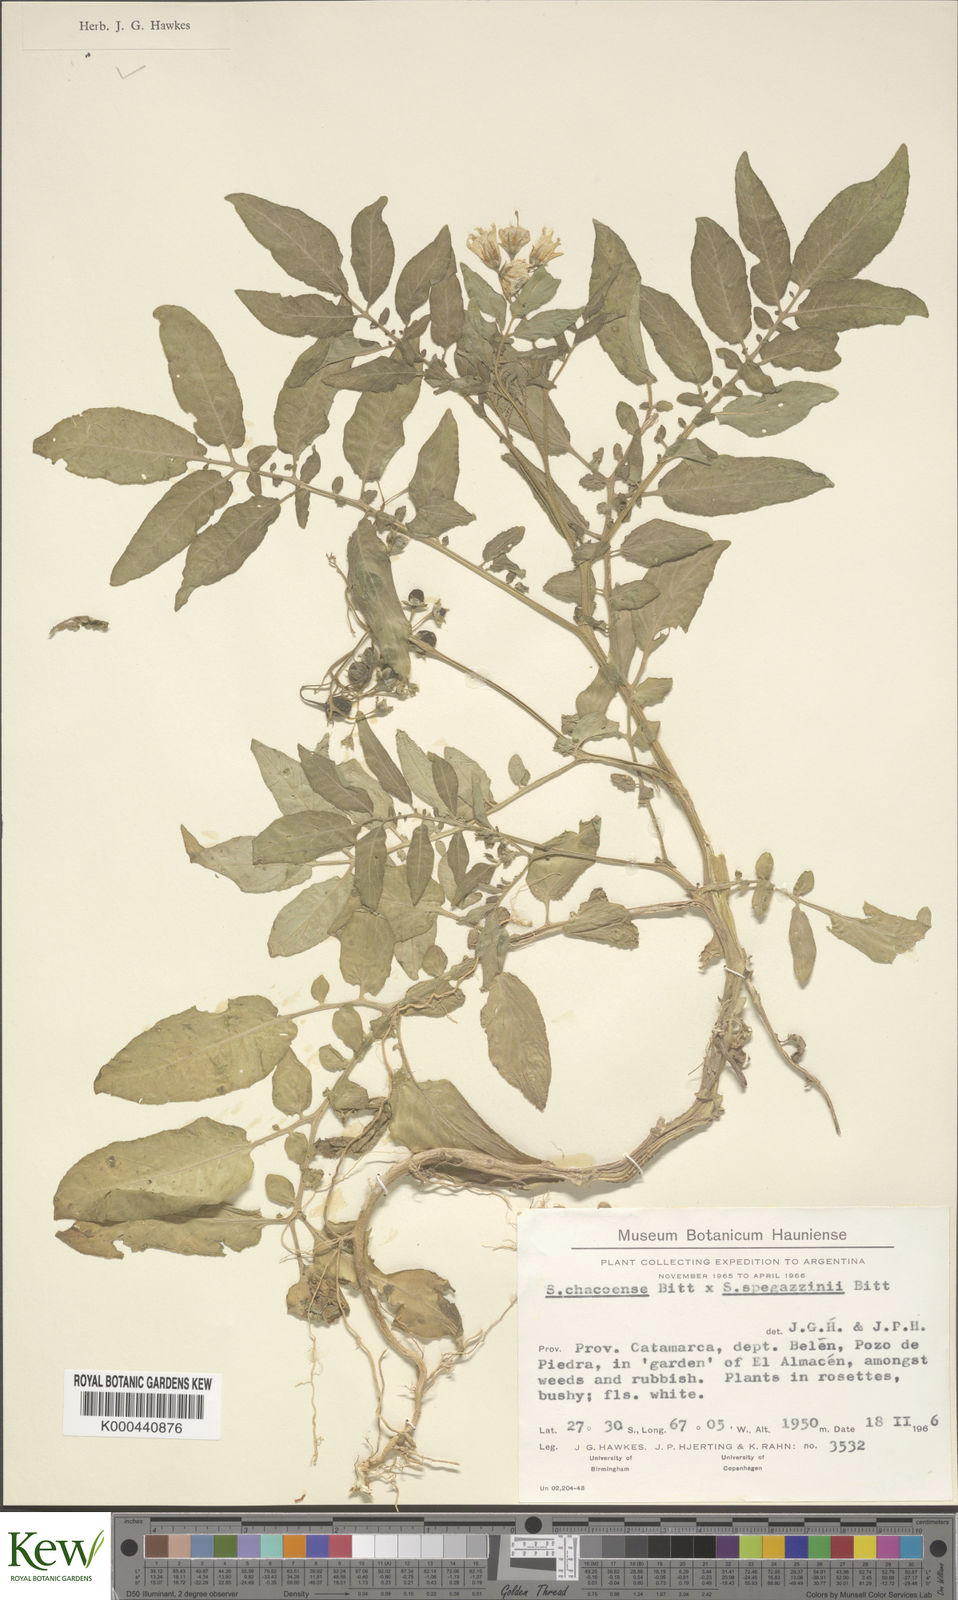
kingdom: Plantae
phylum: Tracheophyta
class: Magnoliopsida
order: Solanales
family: Solanaceae
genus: Solanum
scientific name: Solanum chacoense
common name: Chaco potato
